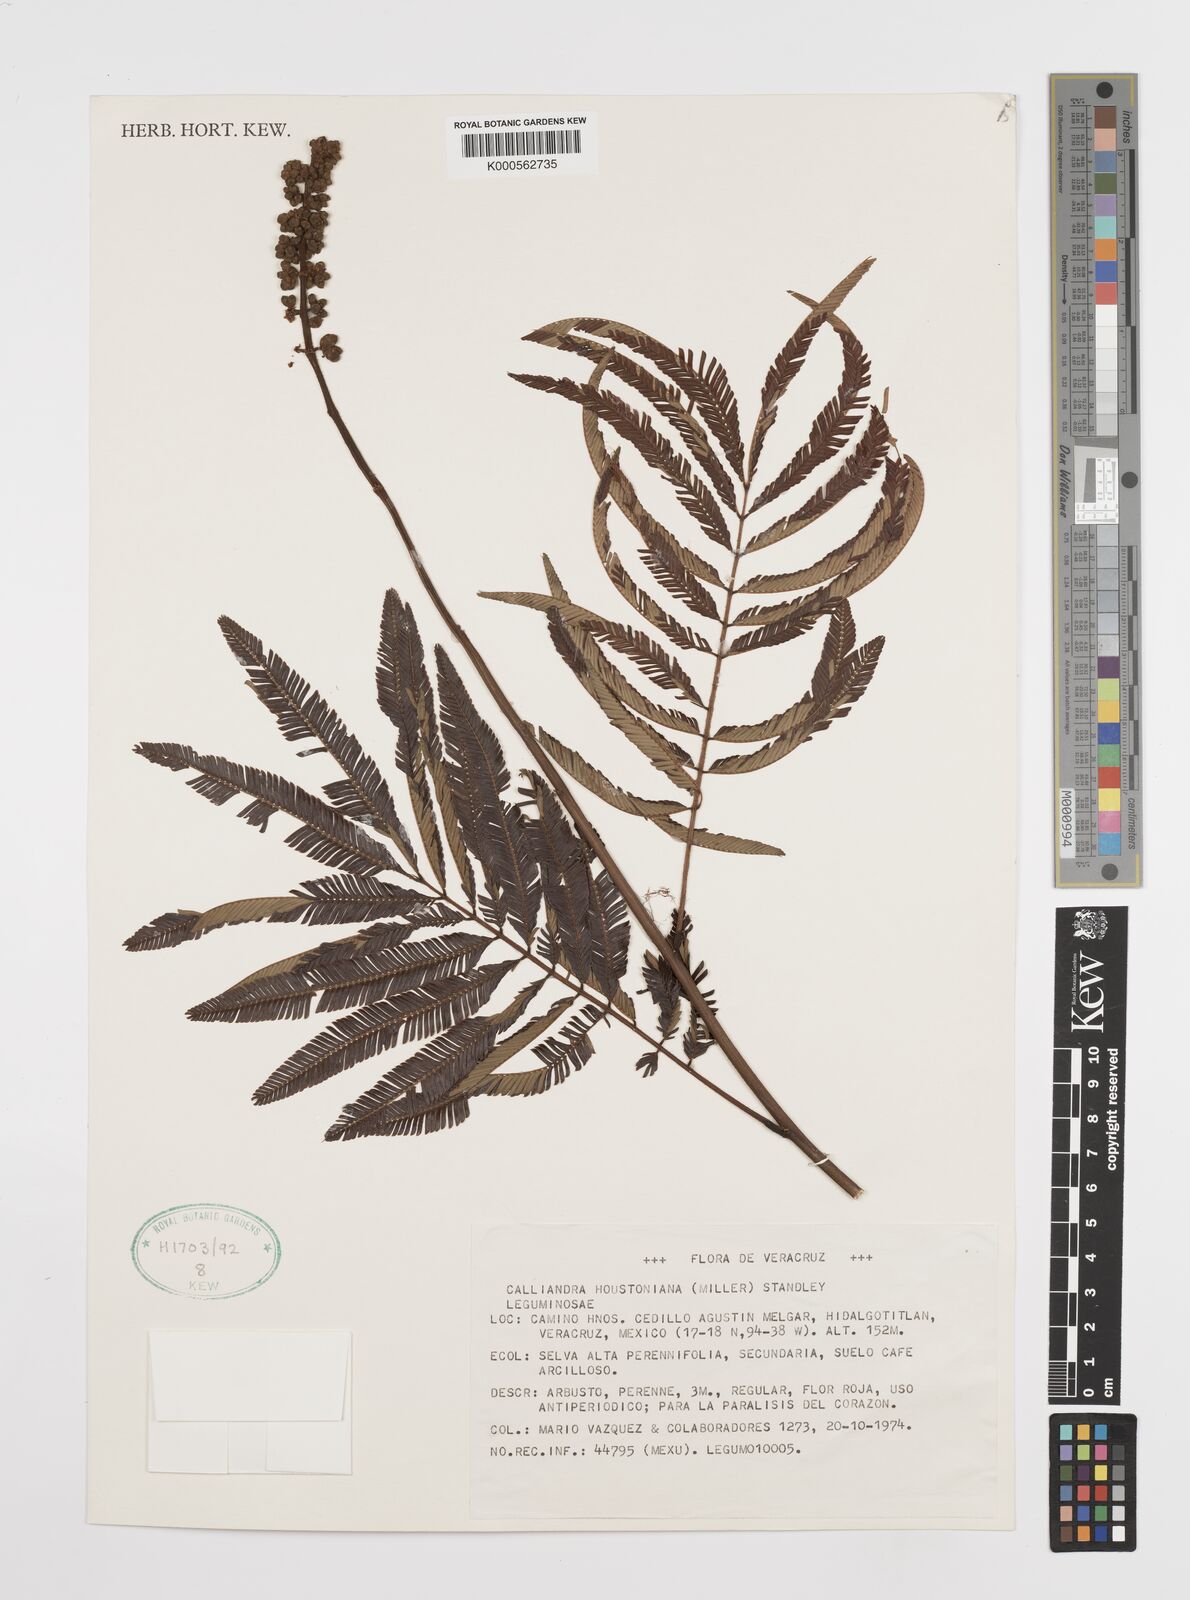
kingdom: Plantae
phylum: Tracheophyta
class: Magnoliopsida
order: Fabales
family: Fabaceae
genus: Calliandra
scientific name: Calliandra houstoniana
